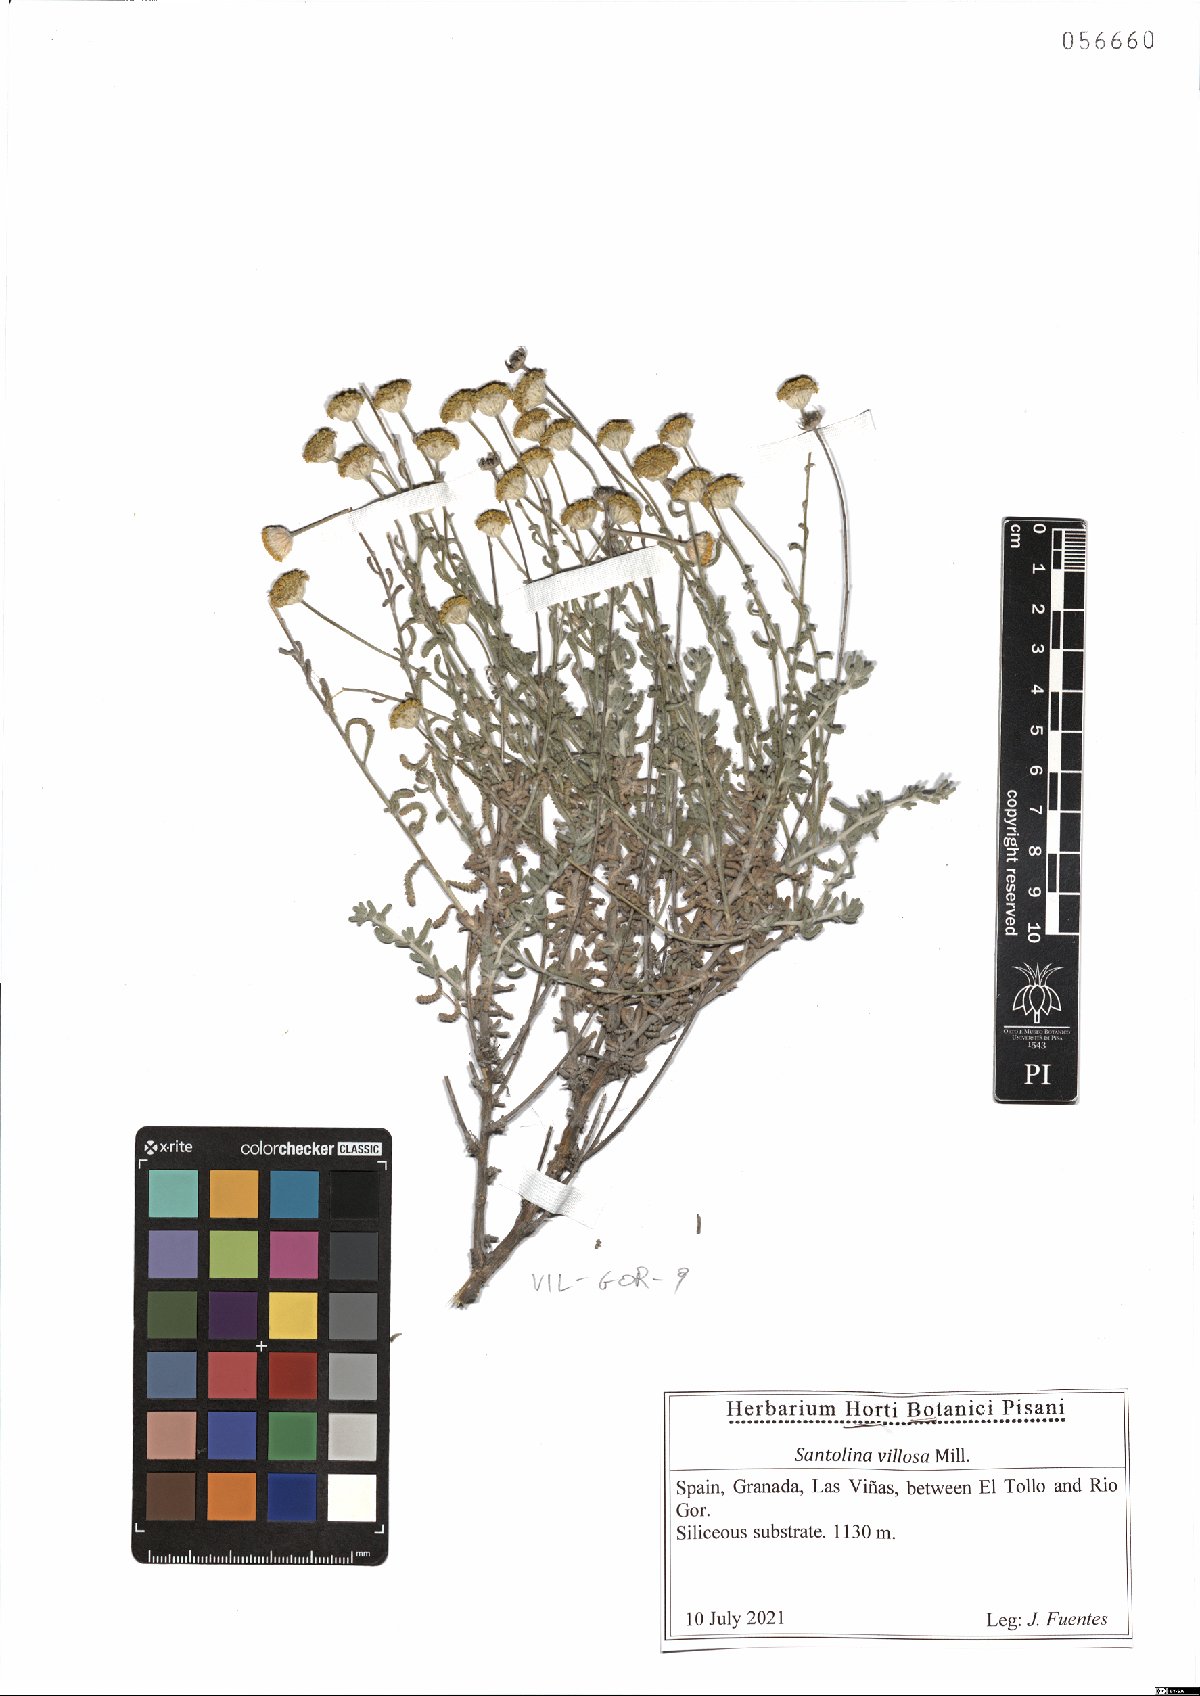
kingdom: Plantae
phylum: Tracheophyta
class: Magnoliopsida
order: Asterales
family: Asteraceae
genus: Santolina
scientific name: Santolina chamaecyparissus
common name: Lavender-cotton
